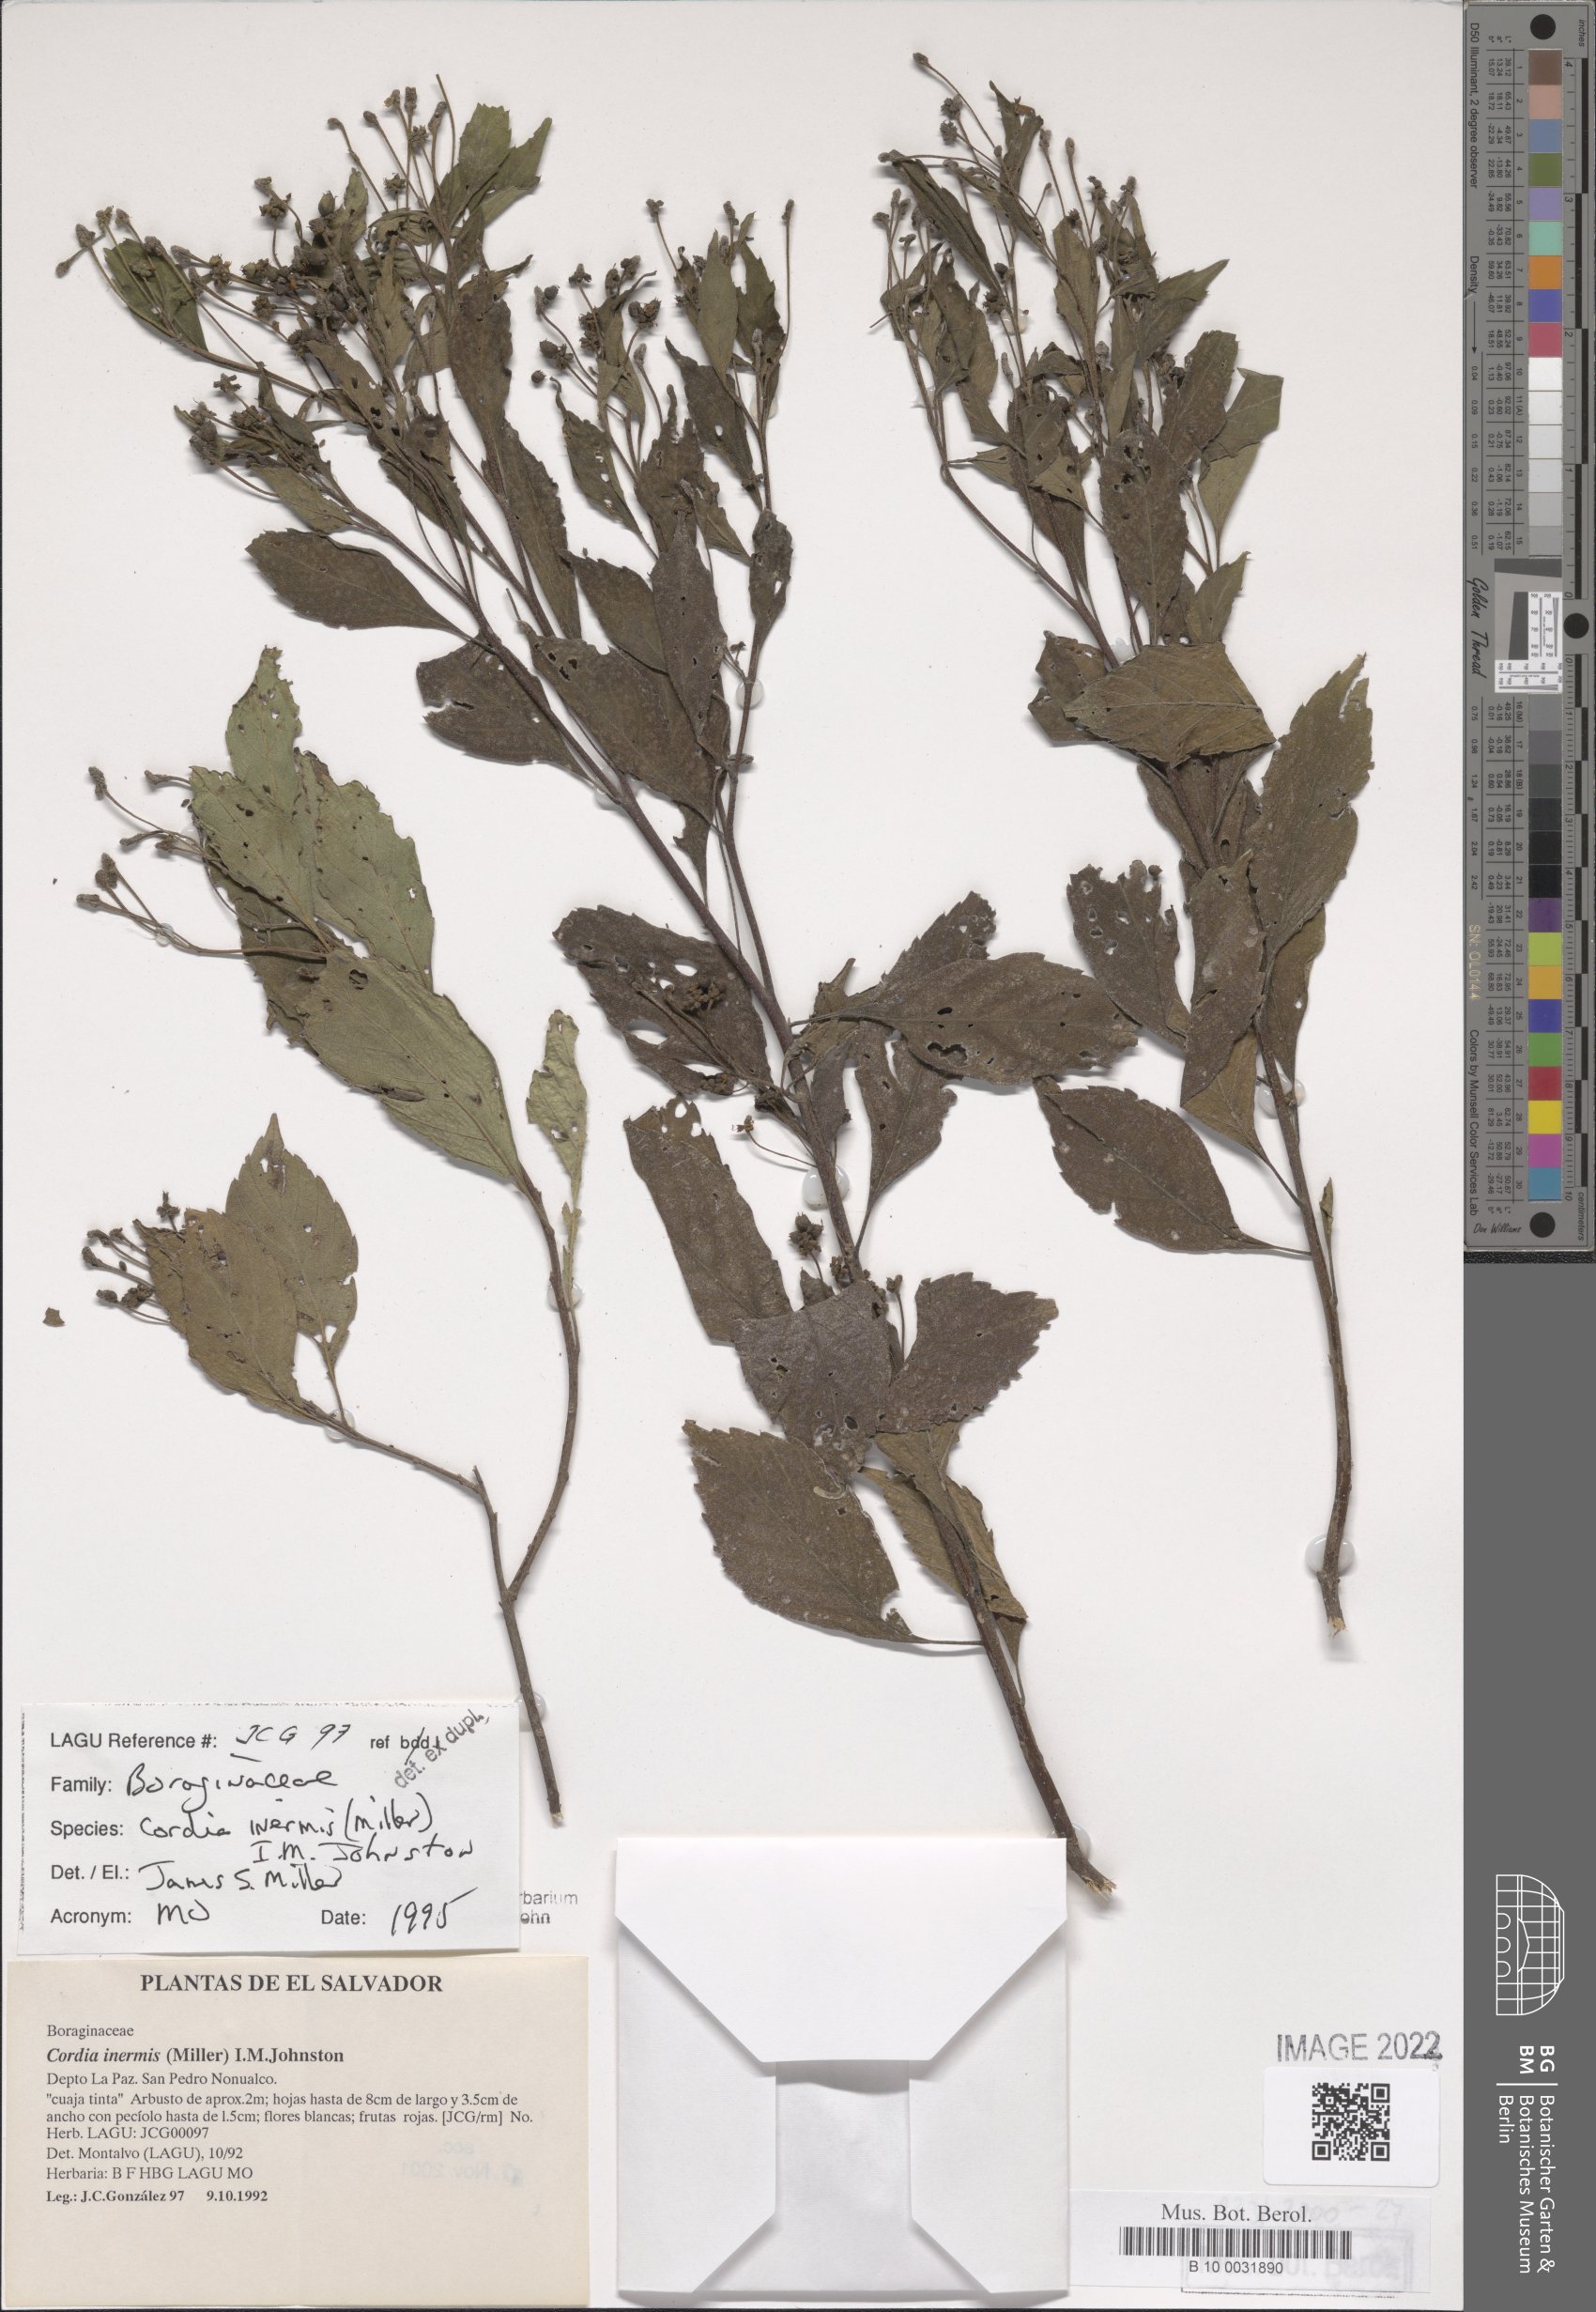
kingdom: Plantae
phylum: Tracheophyta
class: Magnoliopsida
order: Boraginales
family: Cordiaceae
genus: Varronia
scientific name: Varronia inermis
